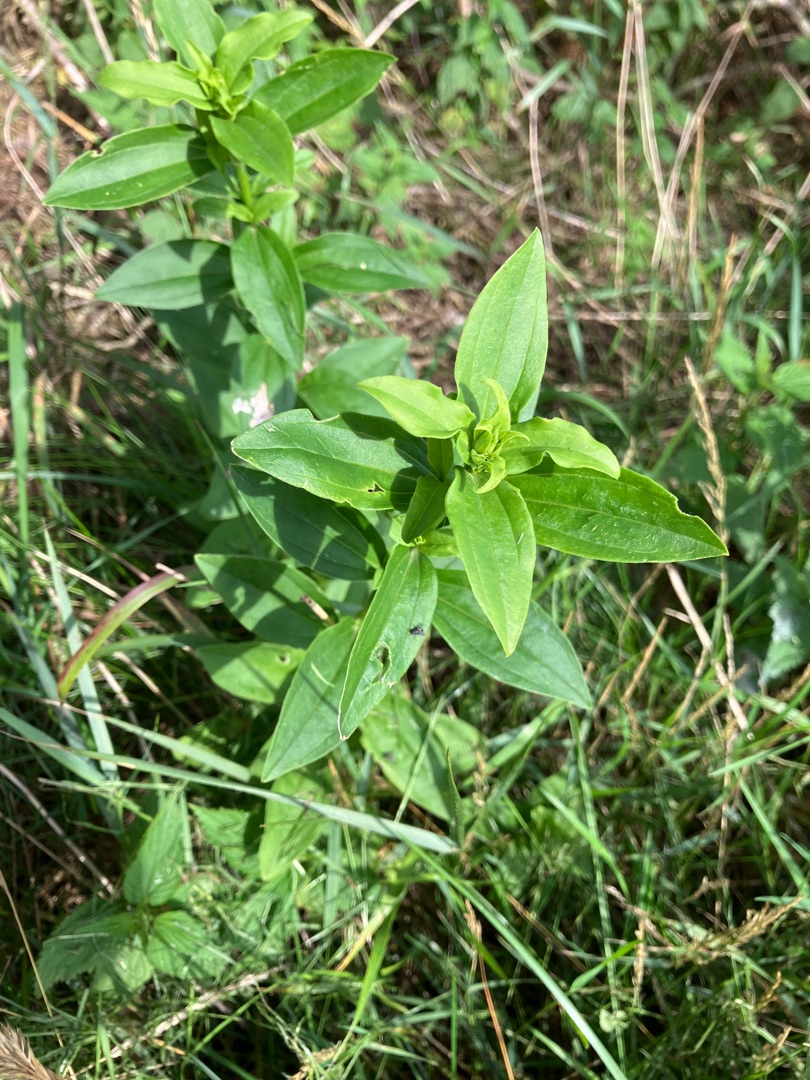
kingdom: Plantae
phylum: Tracheophyta
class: Magnoliopsida
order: Caryophyllales
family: Caryophyllaceae
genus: Saponaria
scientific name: Saponaria officinalis
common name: Sæbeurt
